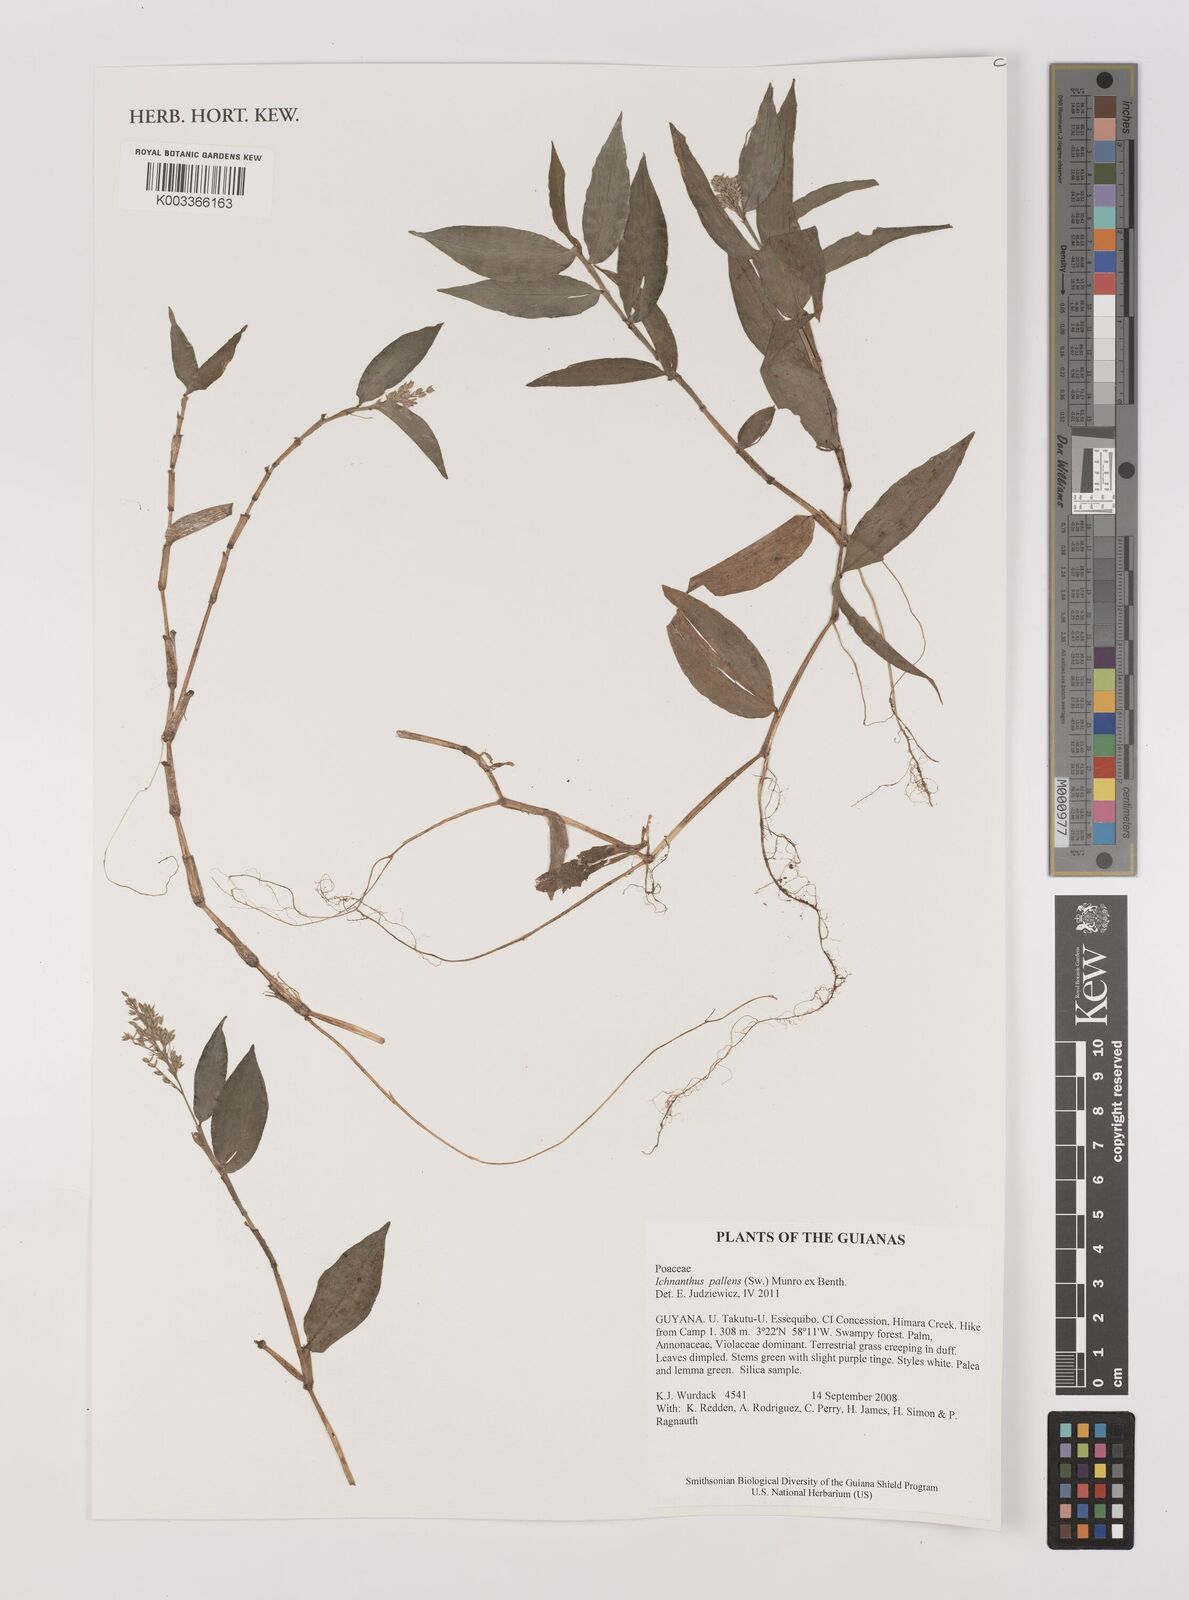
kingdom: Plantae
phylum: Tracheophyta
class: Liliopsida
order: Poales
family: Poaceae
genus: Ichnanthus
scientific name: Ichnanthus pallens
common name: Water grass
